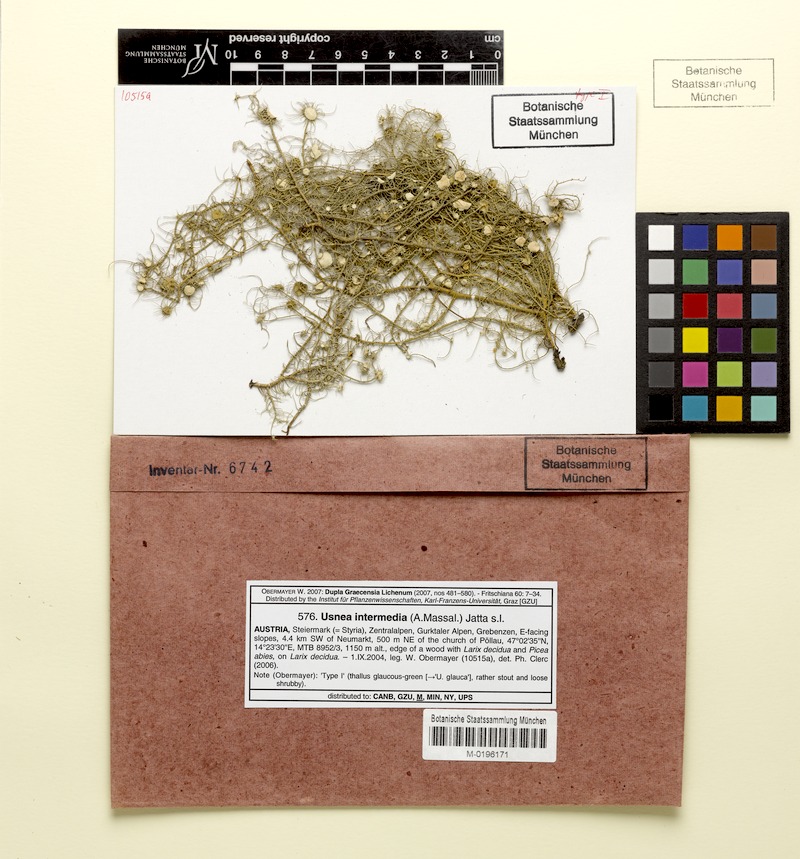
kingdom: Fungi
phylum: Ascomycota
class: Lecanoromycetes
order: Lecanorales
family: Parmeliaceae
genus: Usnea
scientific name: Usnea intermedia
